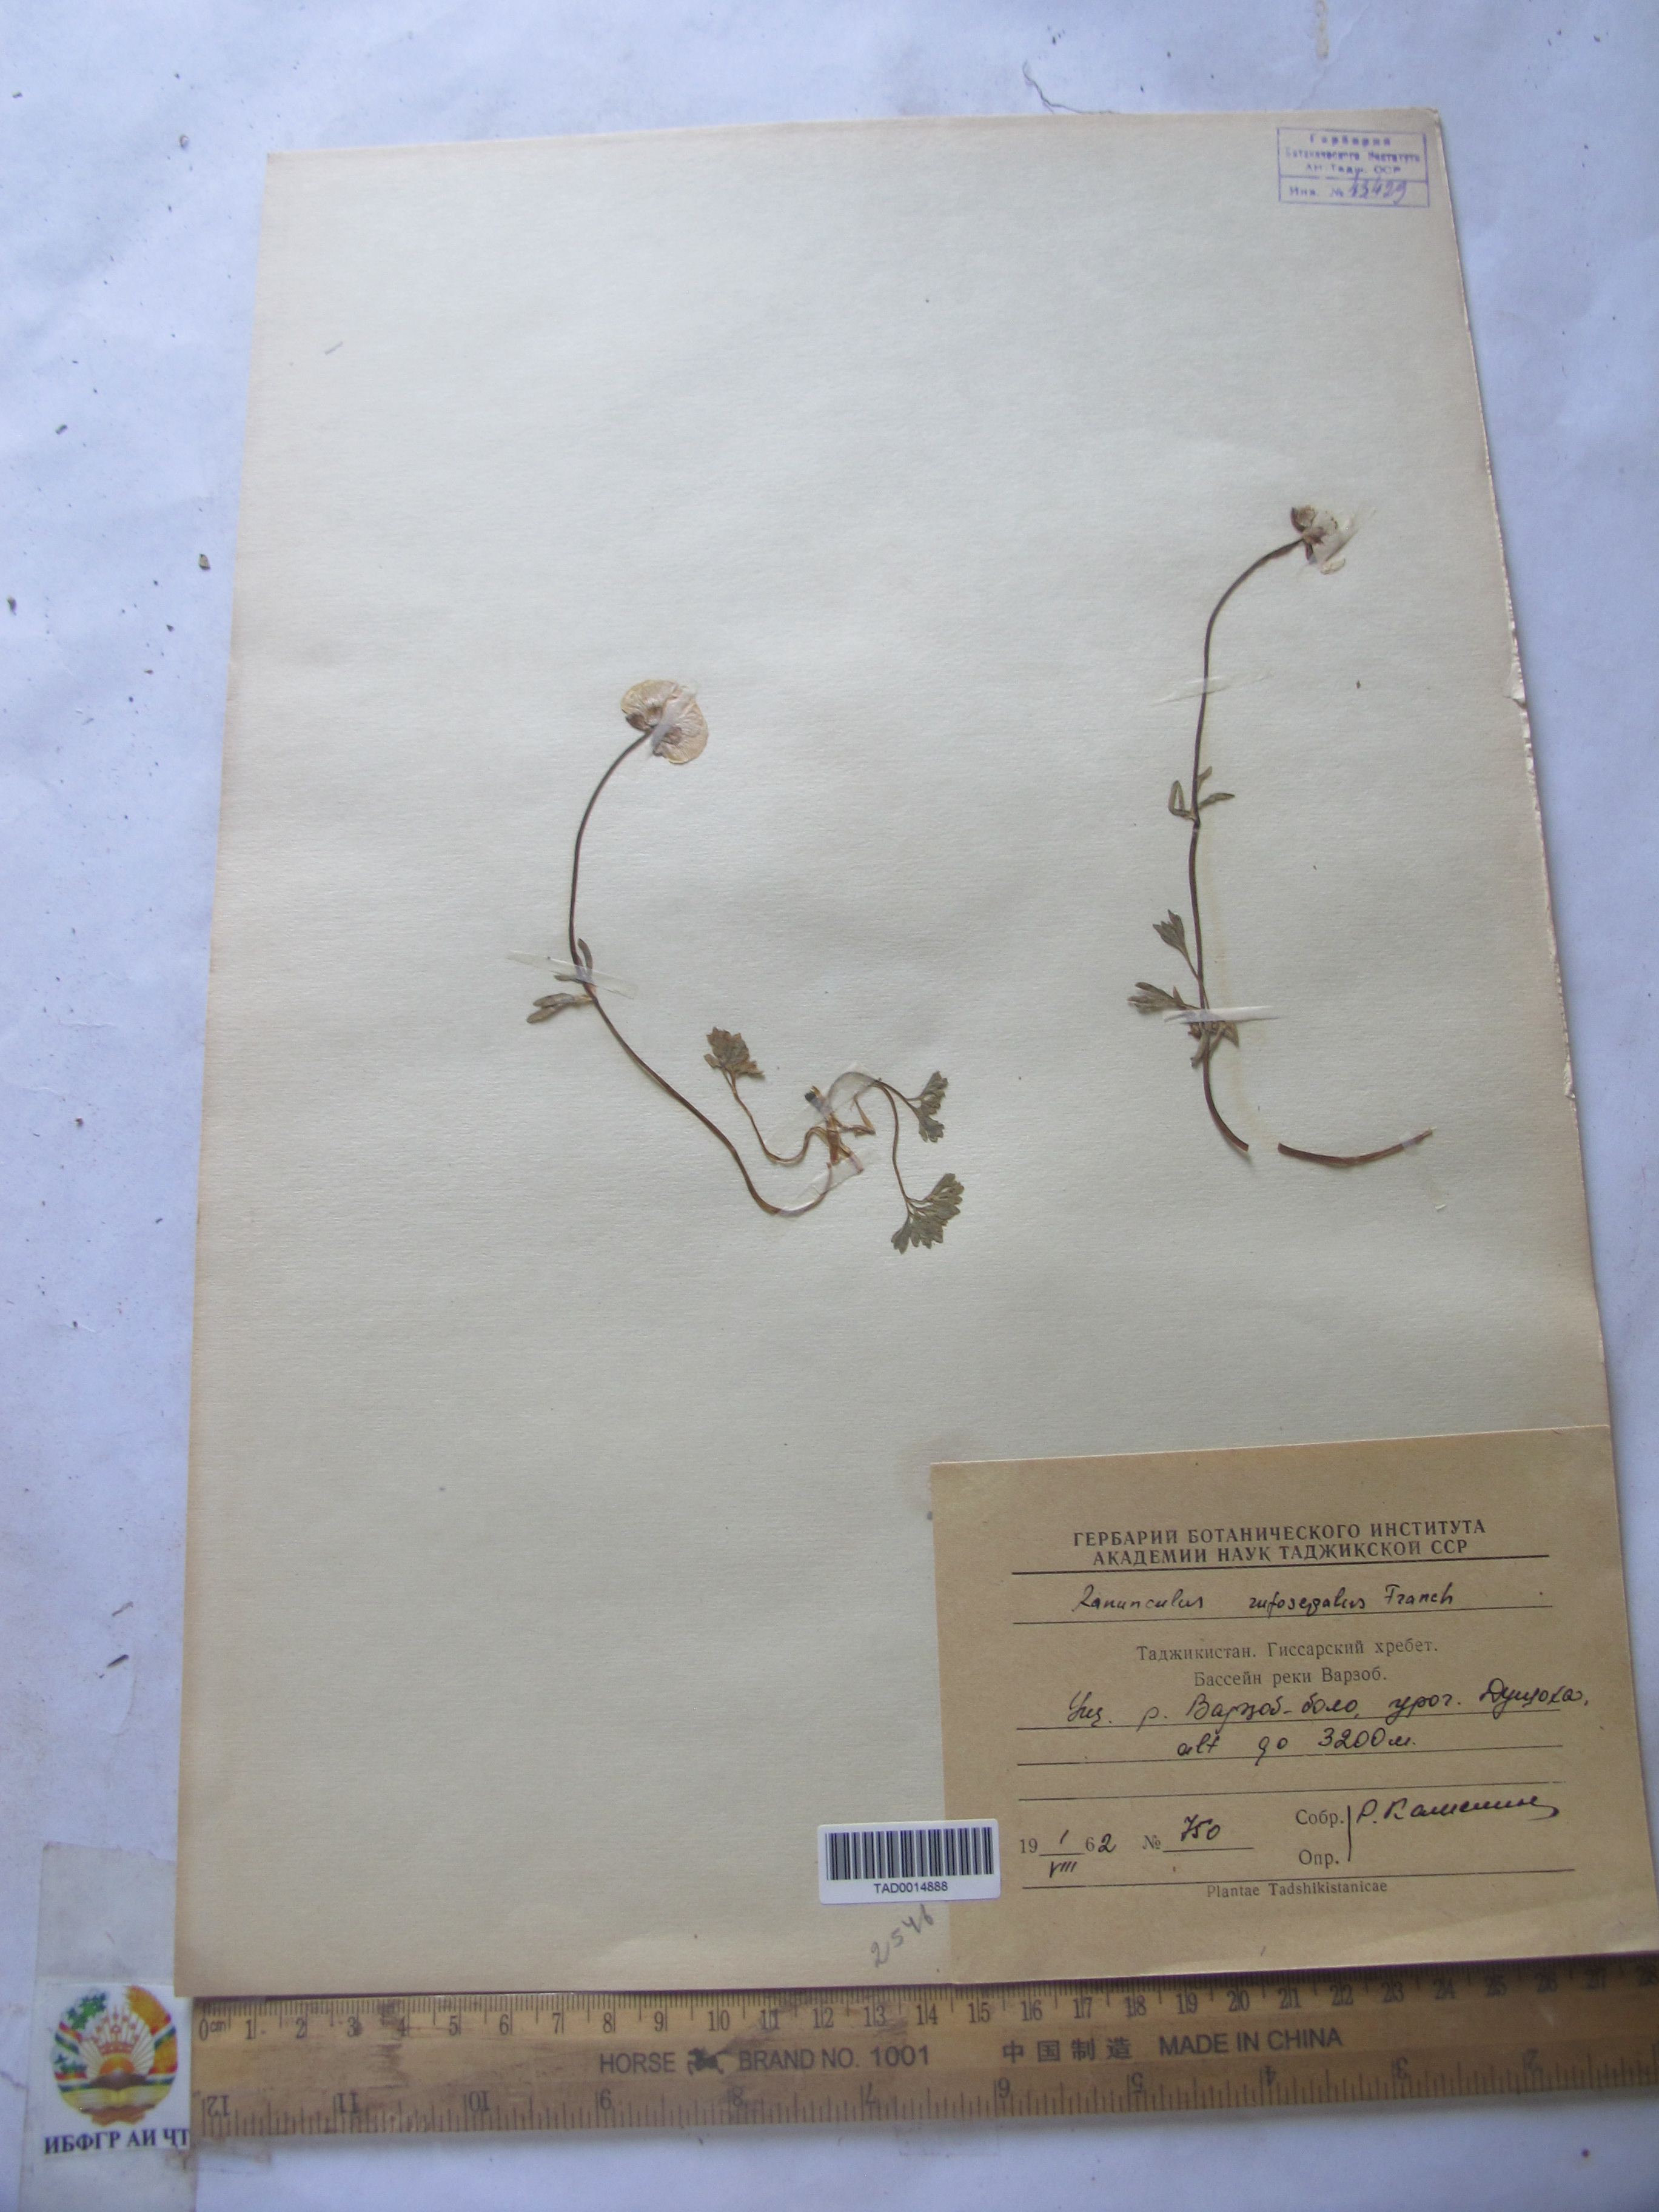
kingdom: Plantae
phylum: Tracheophyta
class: Magnoliopsida
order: Ranunculales
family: Ranunculaceae
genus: Ranunculus
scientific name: Ranunculus rufosepalus
